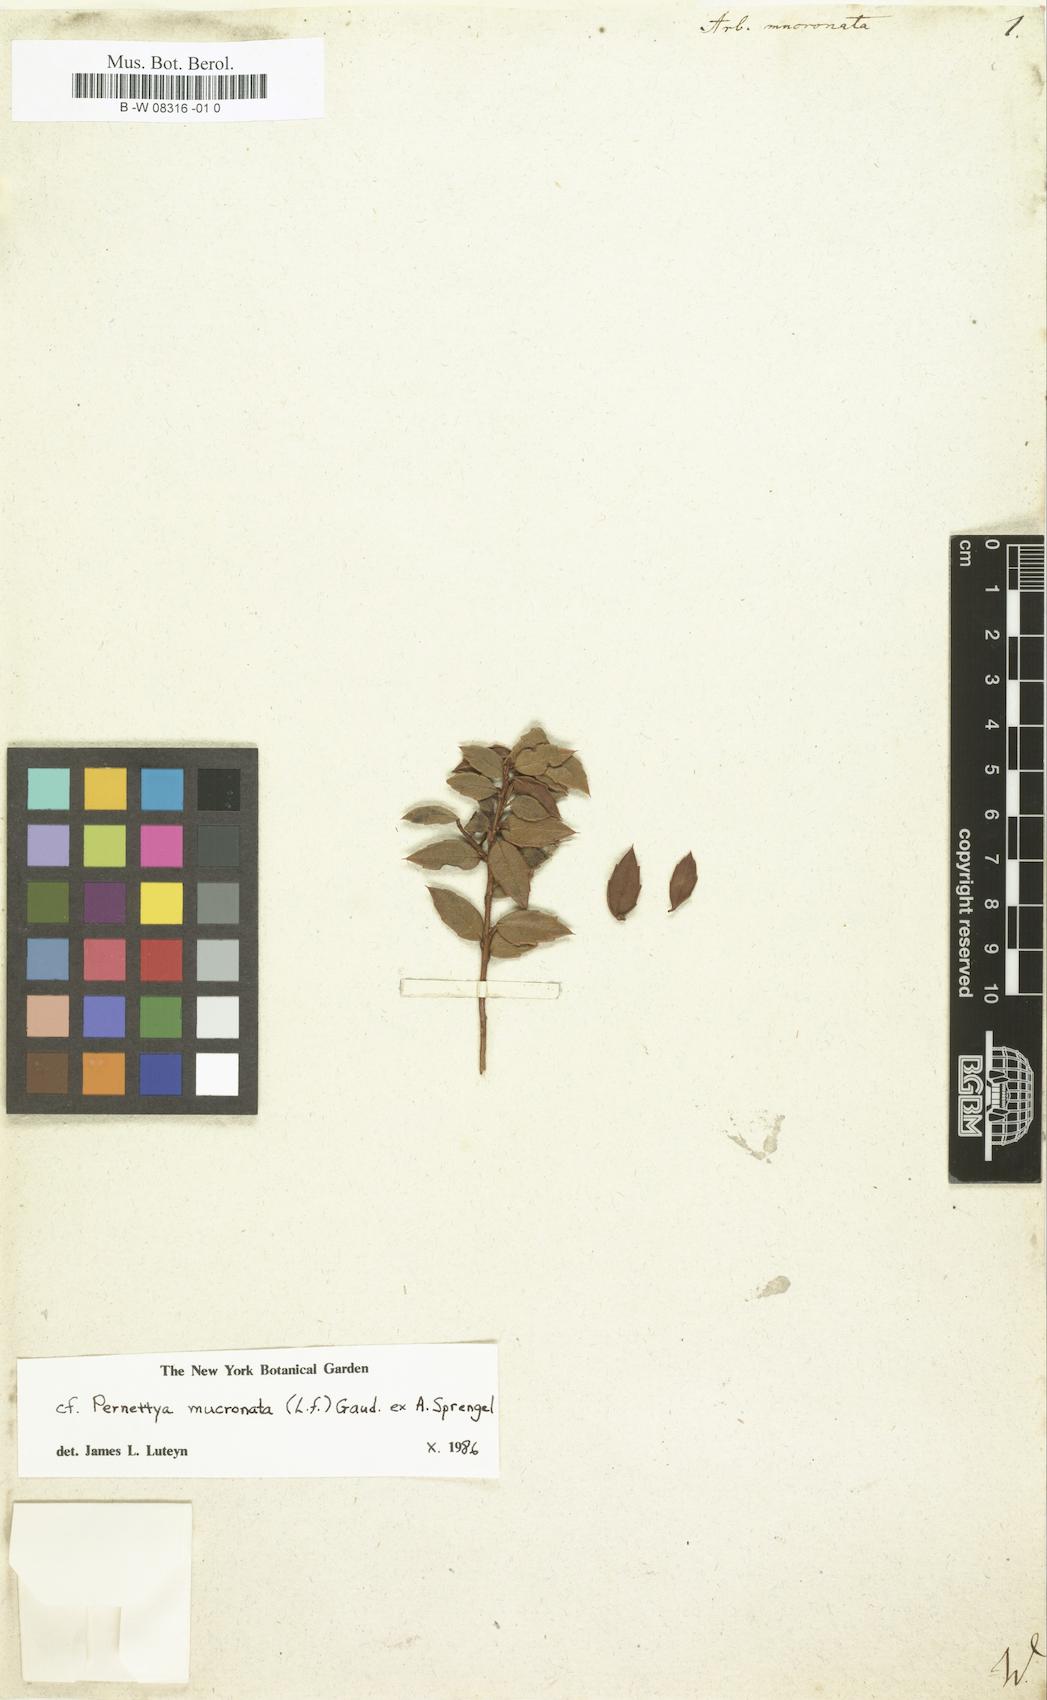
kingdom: Plantae
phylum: Tracheophyta
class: Magnoliopsida
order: Ericales
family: Ericaceae
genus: Gaultheria
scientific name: Gaultheria mucronata
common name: Prickly heath
